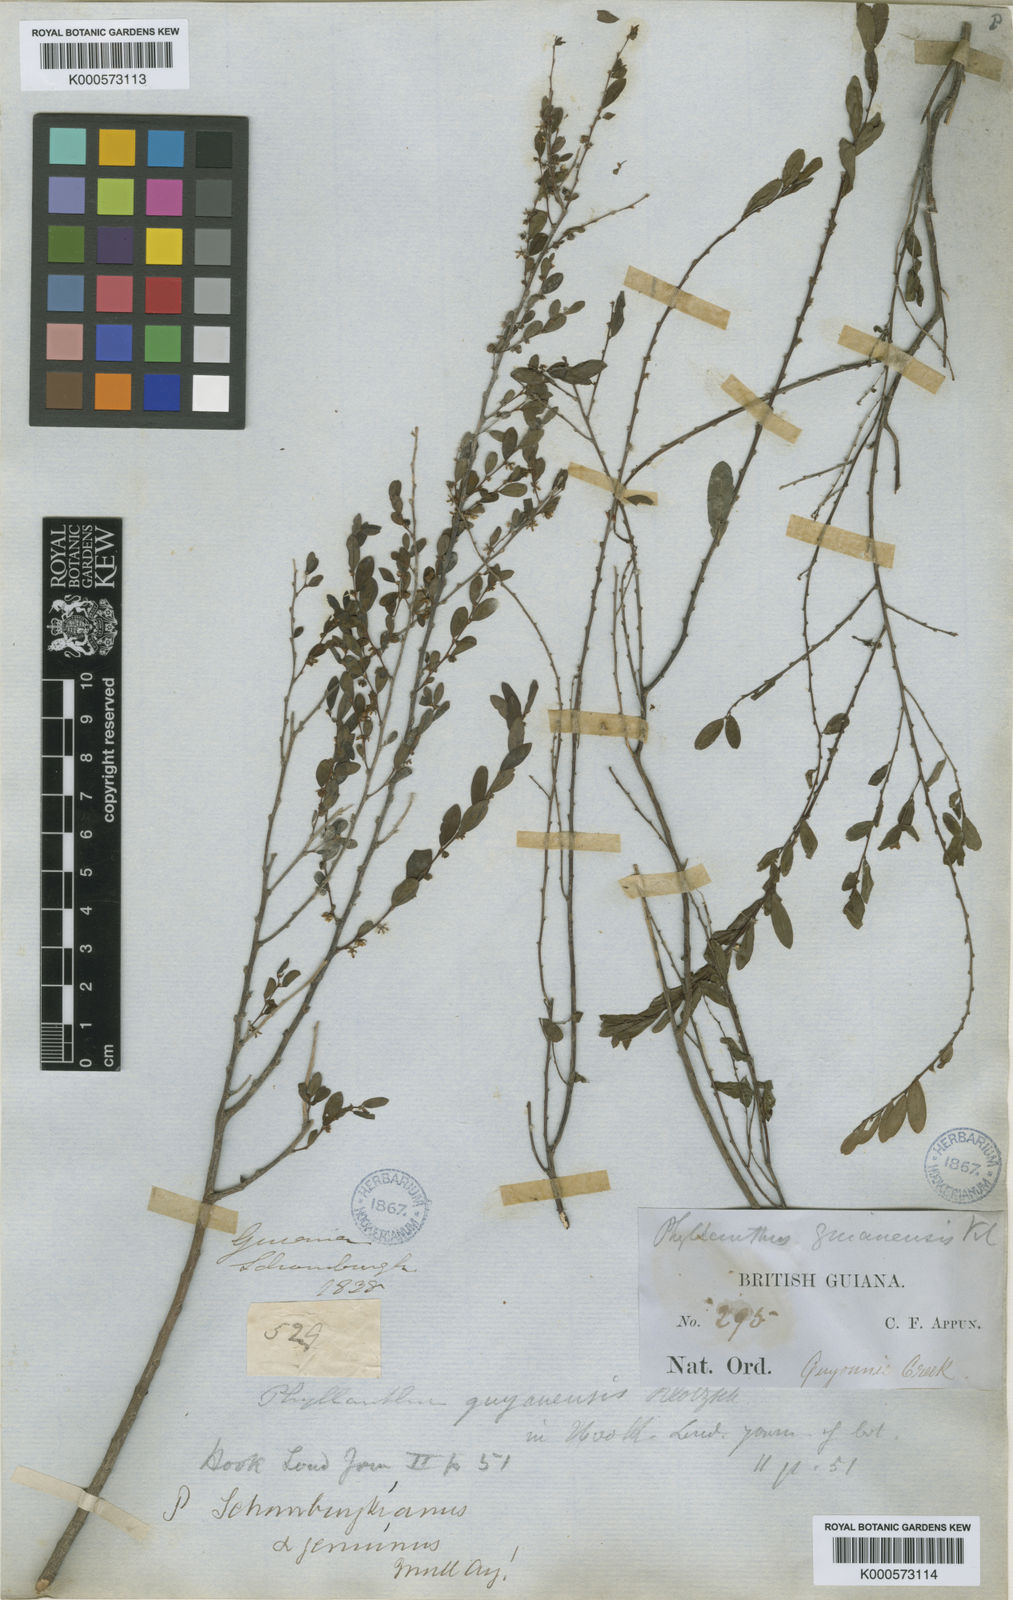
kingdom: Plantae
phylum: Tracheophyta
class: Magnoliopsida
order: Malpighiales
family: Phyllanthaceae
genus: Phyllanthus
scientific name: Phyllanthus caroliniensis
